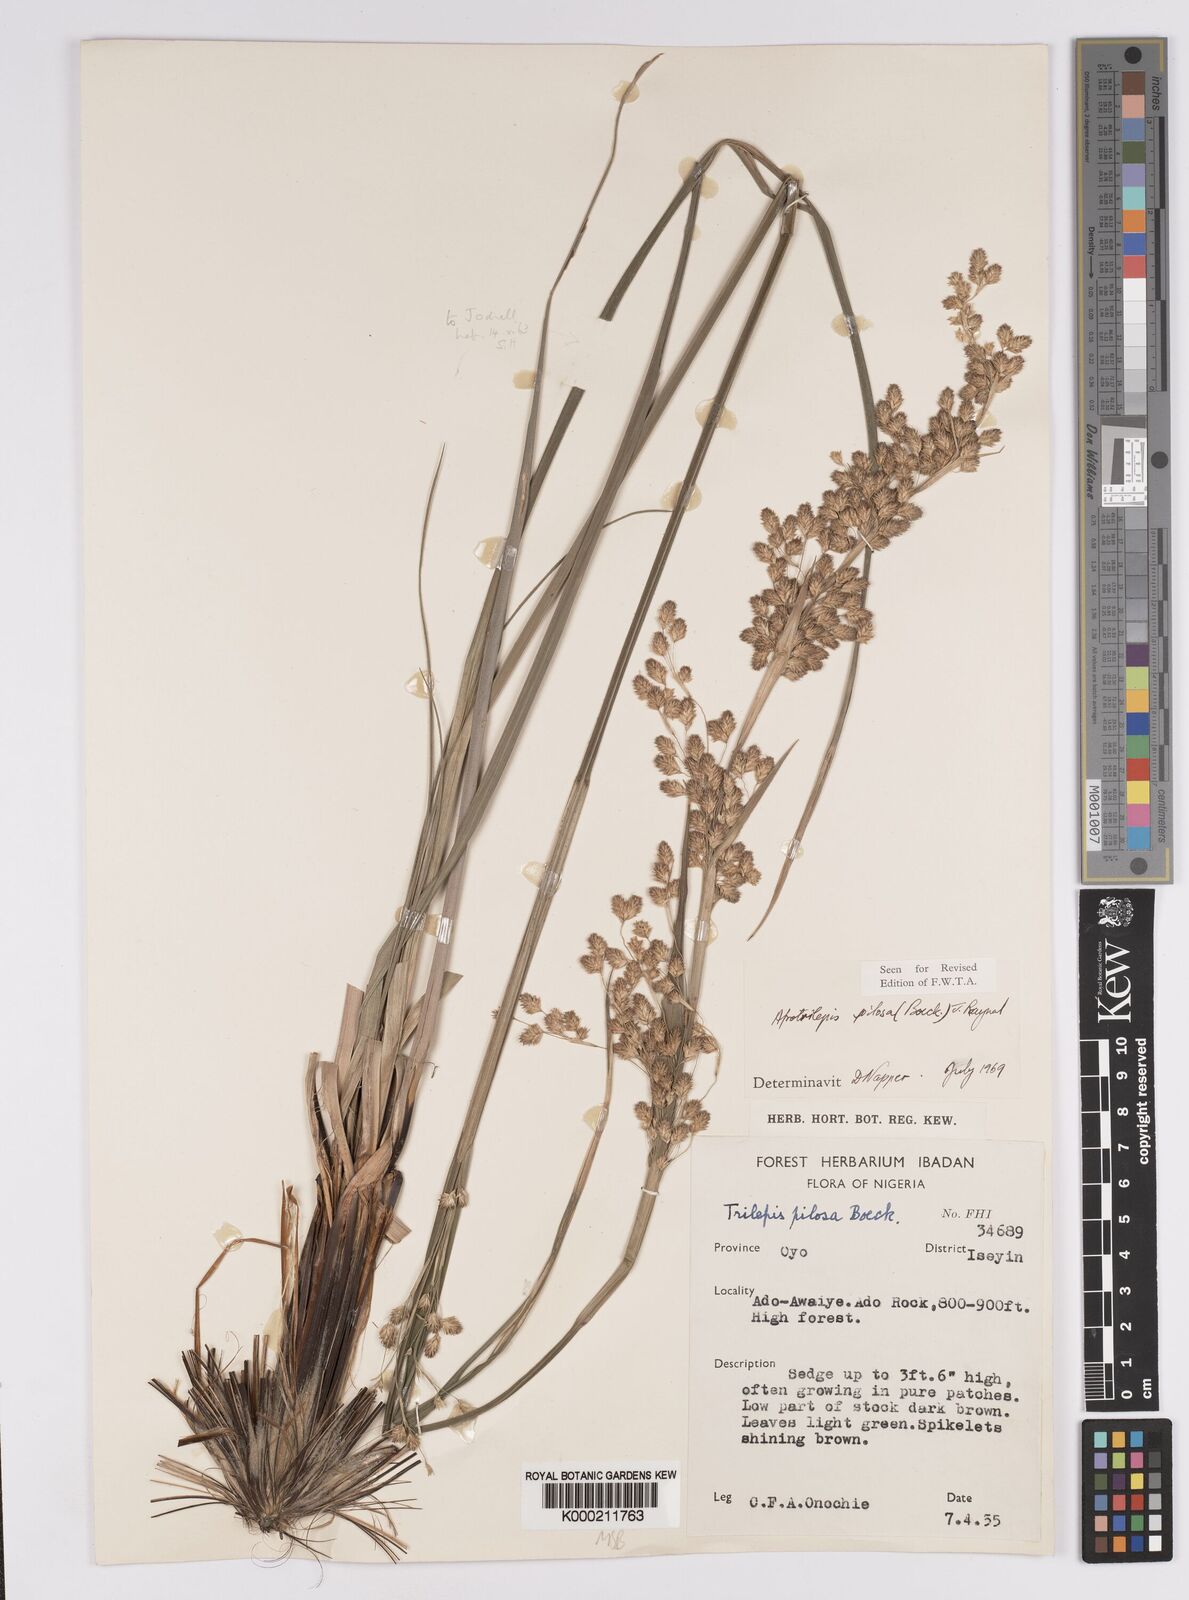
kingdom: Plantae
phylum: Tracheophyta
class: Liliopsida
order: Poales
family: Cyperaceae
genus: Afrotrilepis
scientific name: Afrotrilepis pilosa
